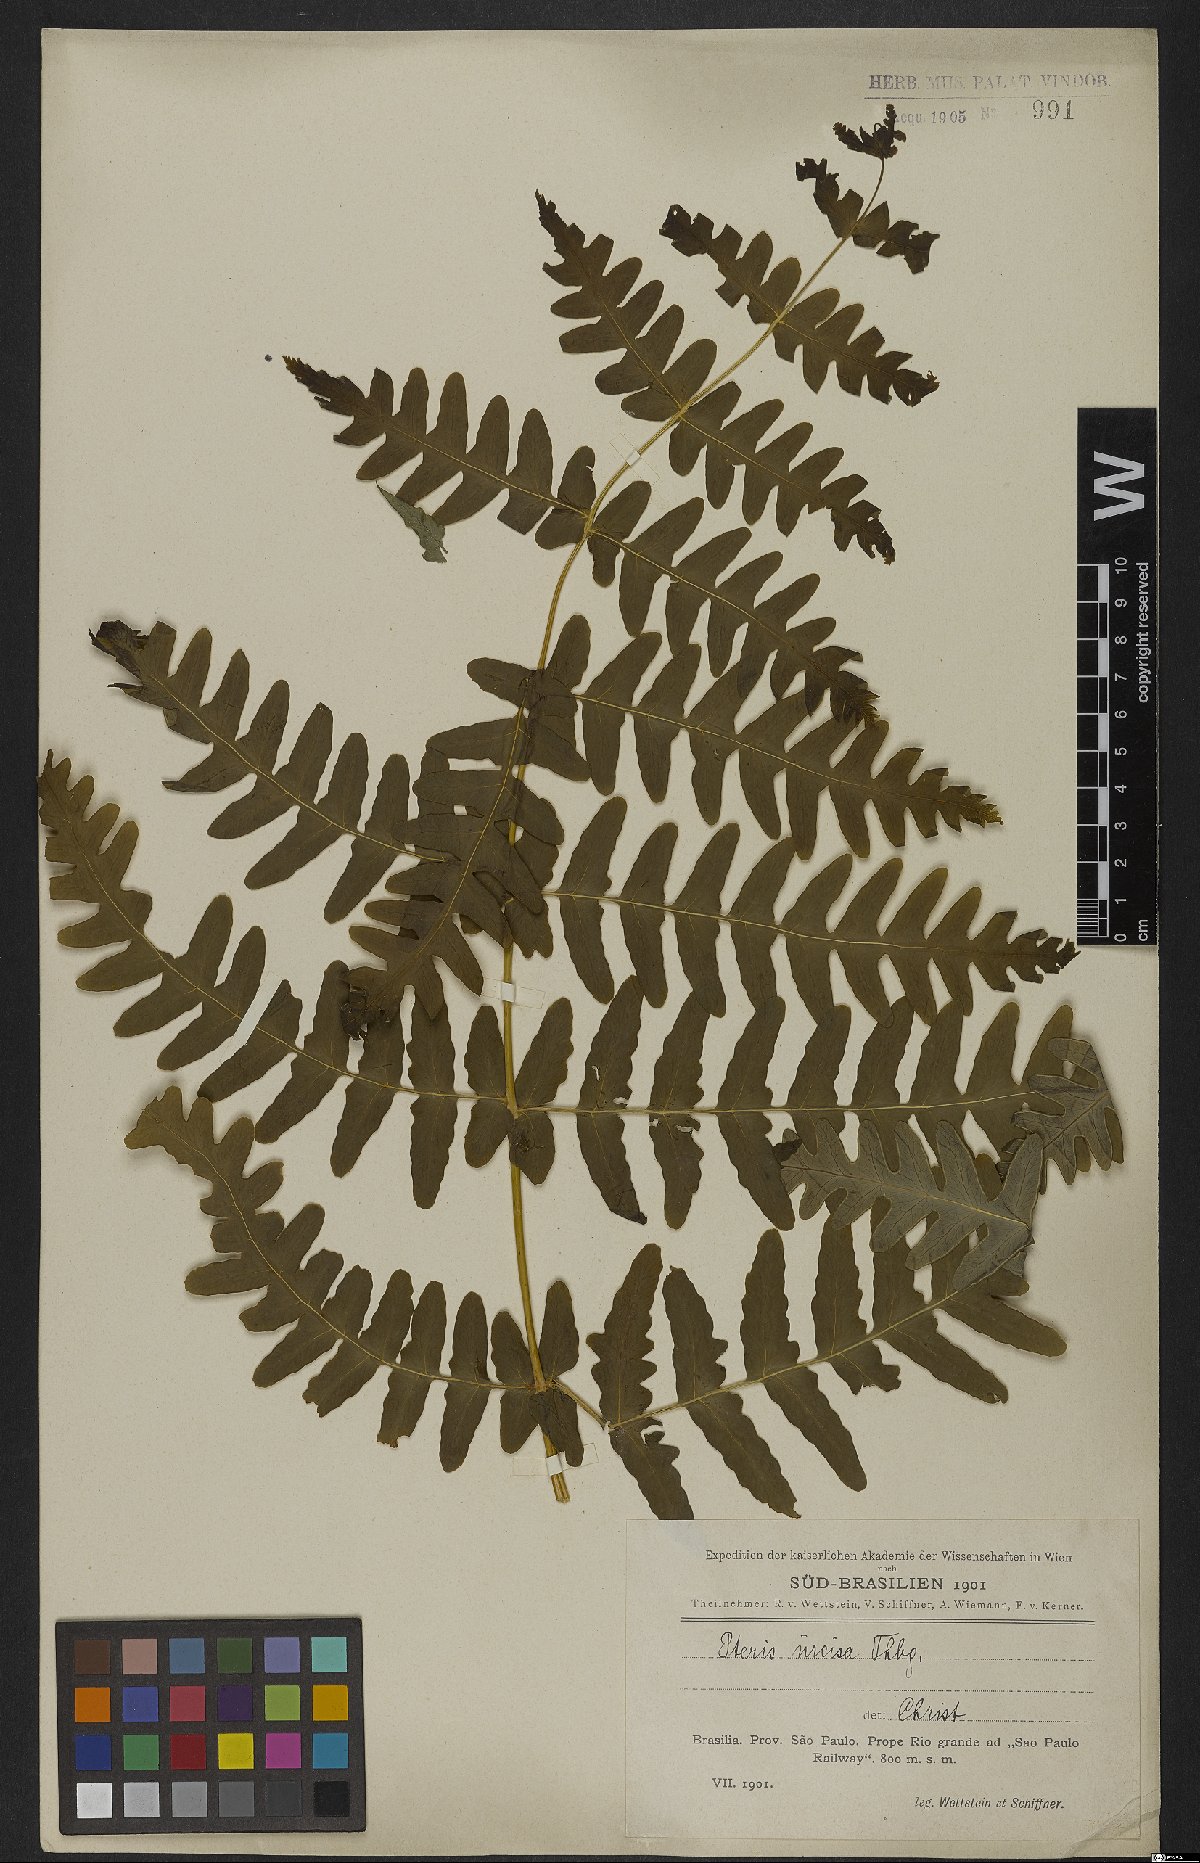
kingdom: Plantae
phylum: Tracheophyta
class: Polypodiopsida
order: Polypodiales
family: Dennstaedtiaceae
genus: Histiopteris
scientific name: Histiopteris incisa
